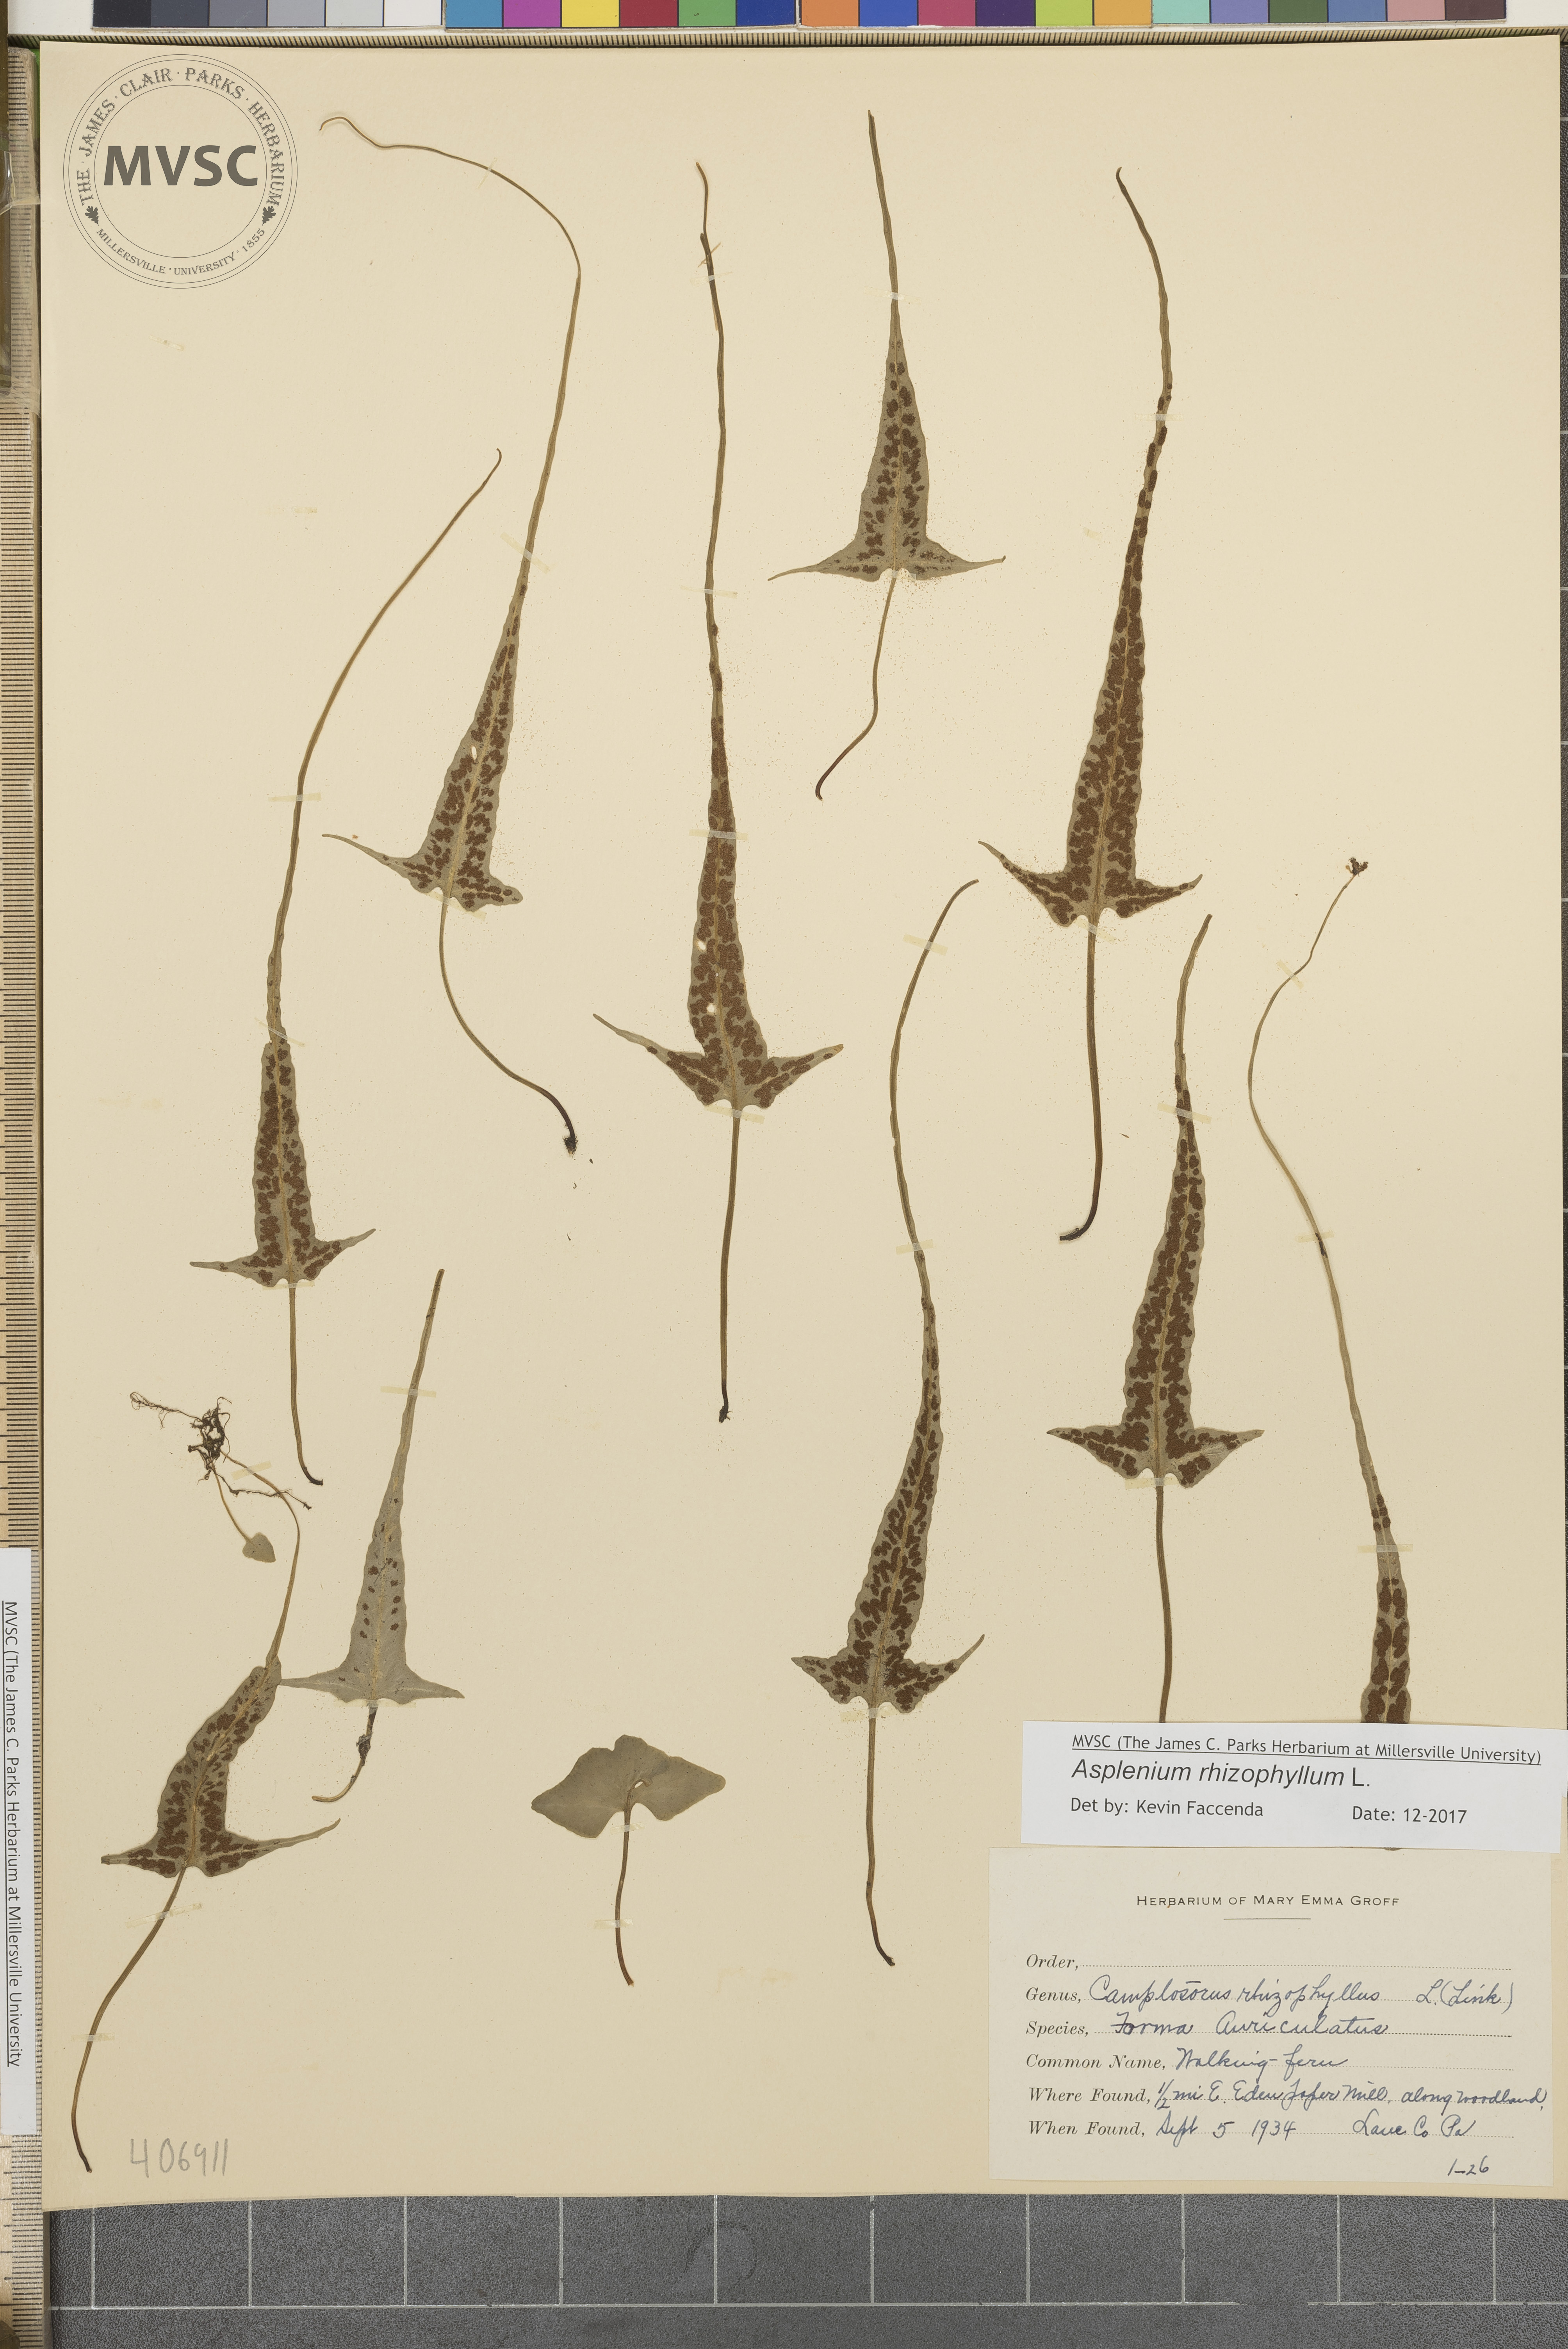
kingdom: Plantae
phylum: Tracheophyta
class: Polypodiopsida
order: Polypodiales
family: Aspleniaceae
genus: Asplenium
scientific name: Asplenium rhizophyllum
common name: Walking fern
